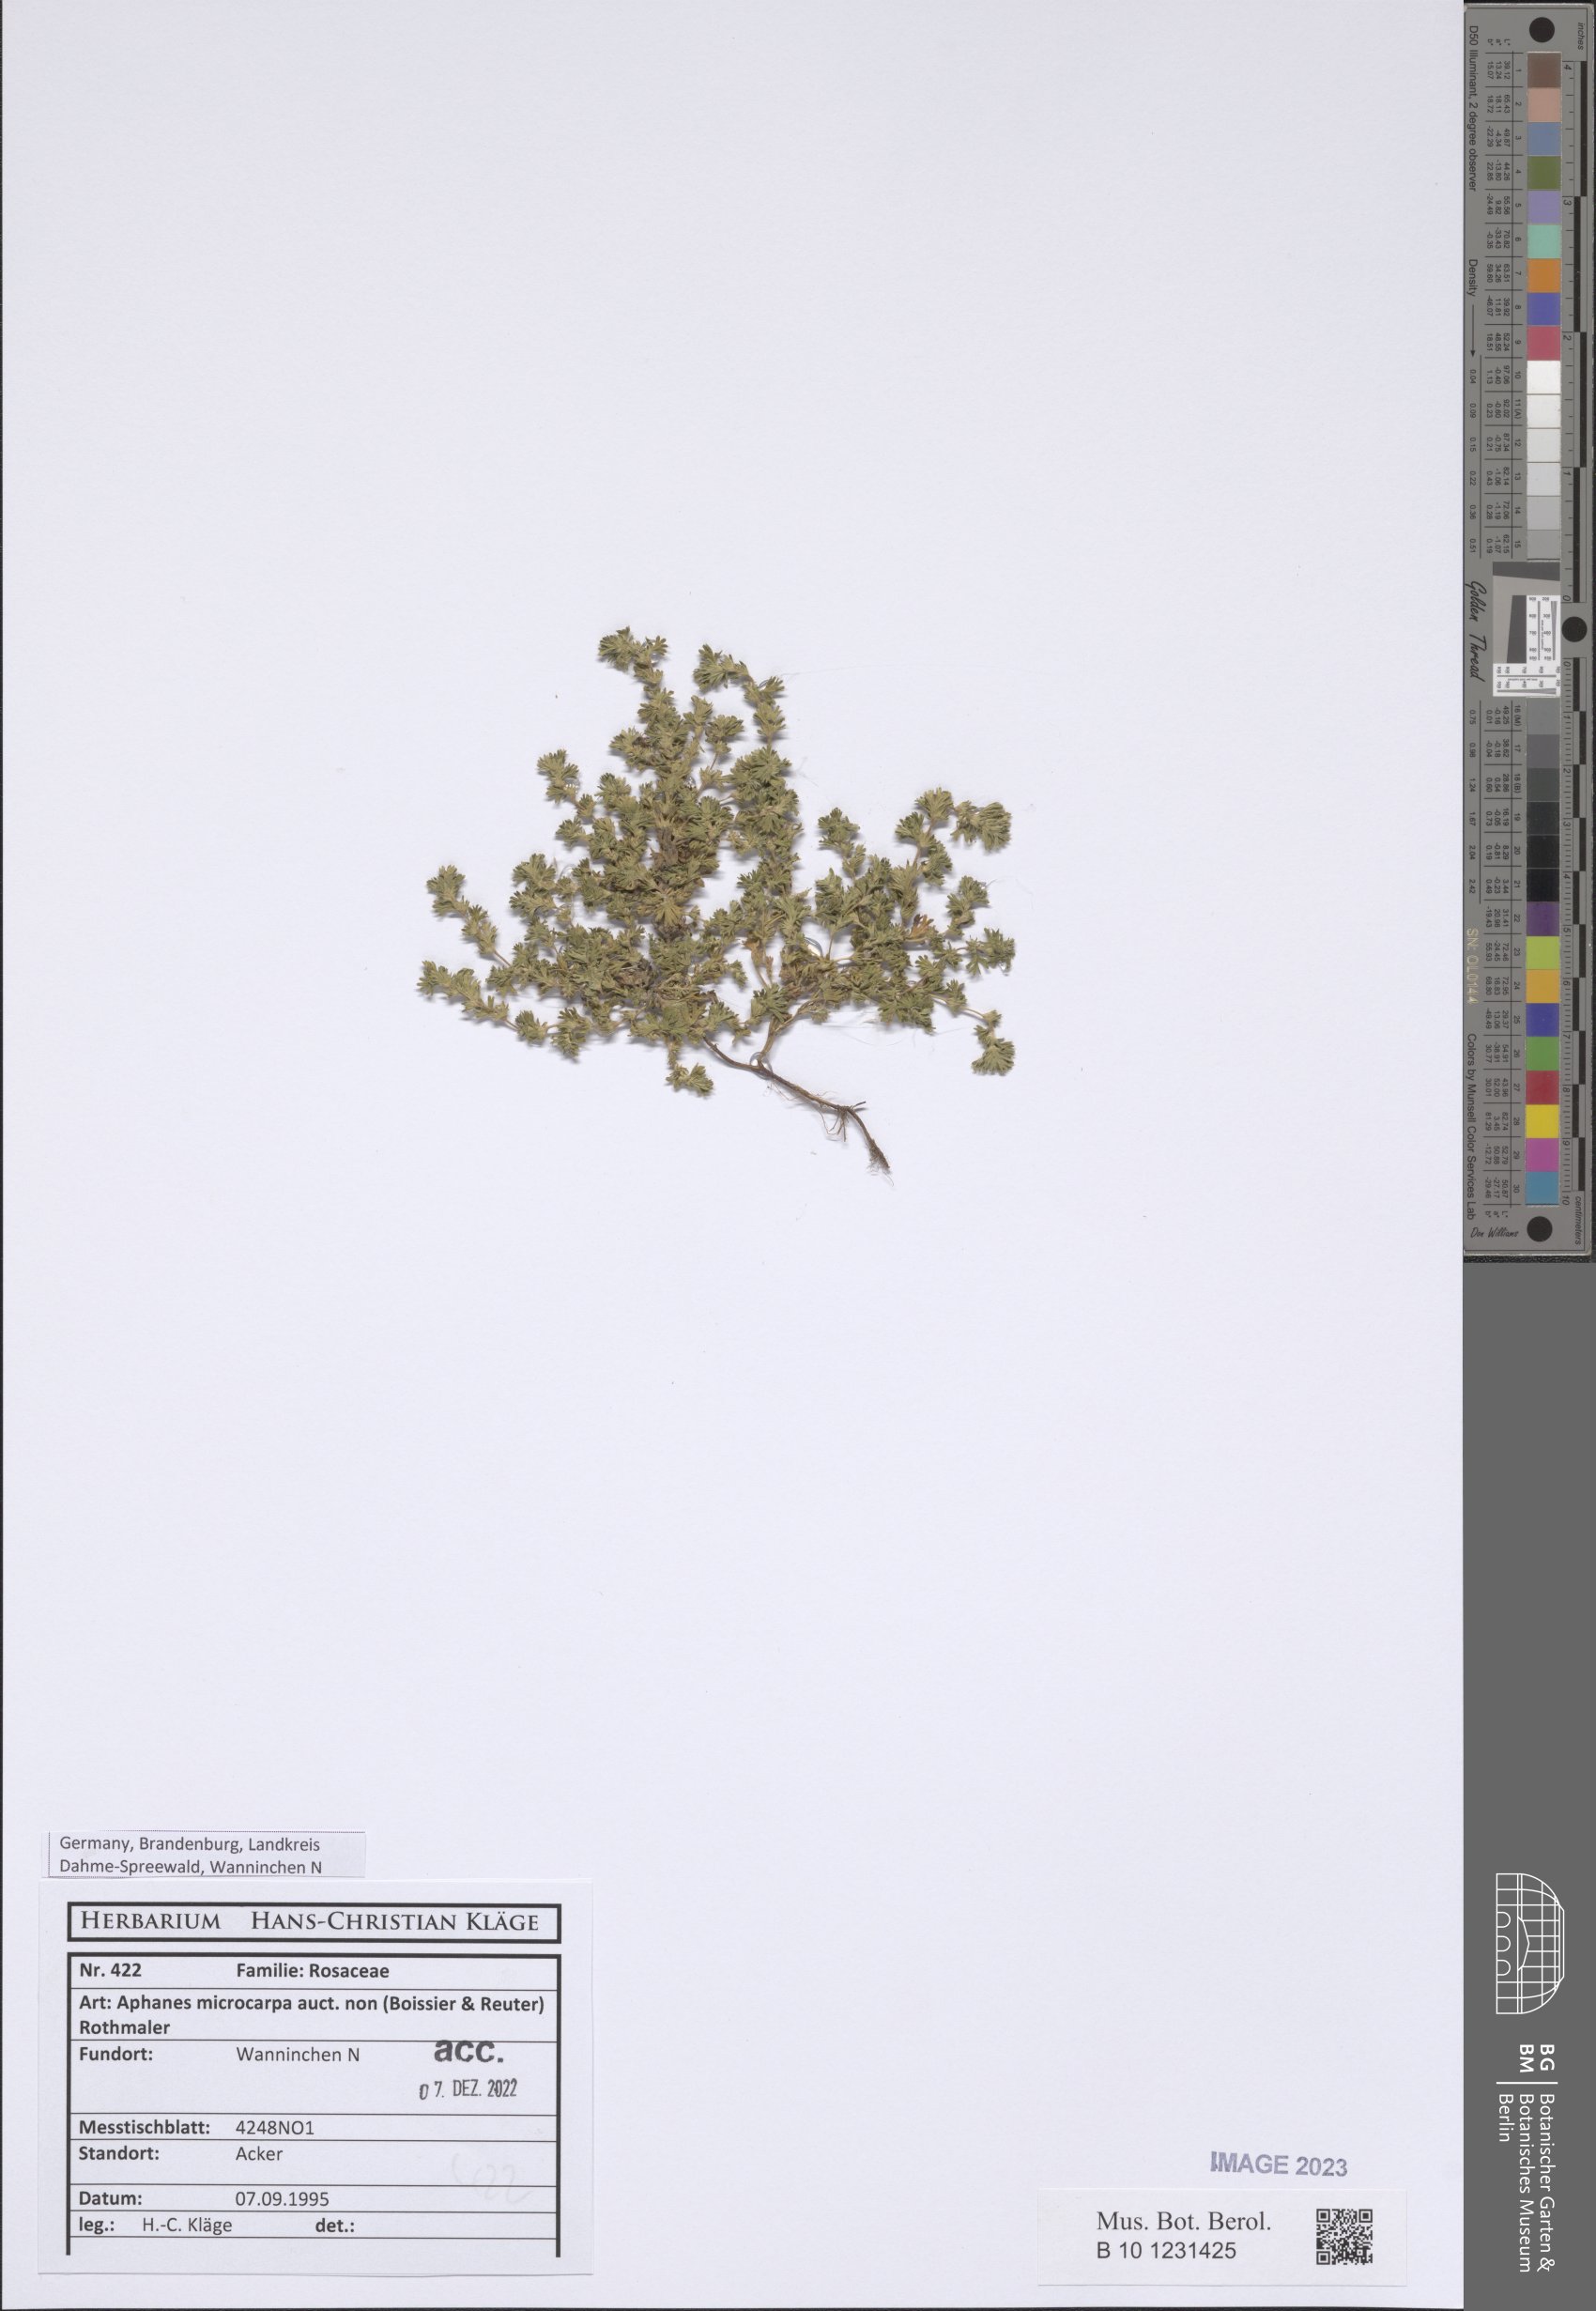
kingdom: Plantae
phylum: Tracheophyta
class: Magnoliopsida
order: Rosales
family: Rosaceae
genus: Aphanes
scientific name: Aphanes microcarpa
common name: Slender parsley piert
